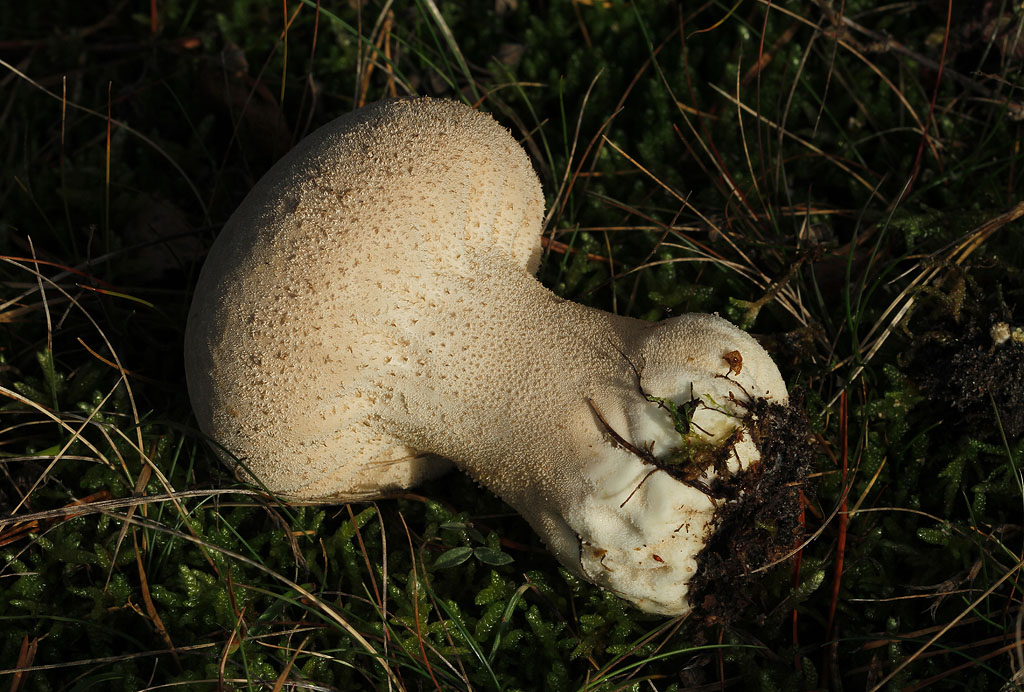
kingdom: Fungi
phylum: Basidiomycota
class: Agaricomycetes
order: Agaricales
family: Lycoperdaceae
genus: Lycoperdon
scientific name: Lycoperdon excipuliforme
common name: højstokket støvbold
